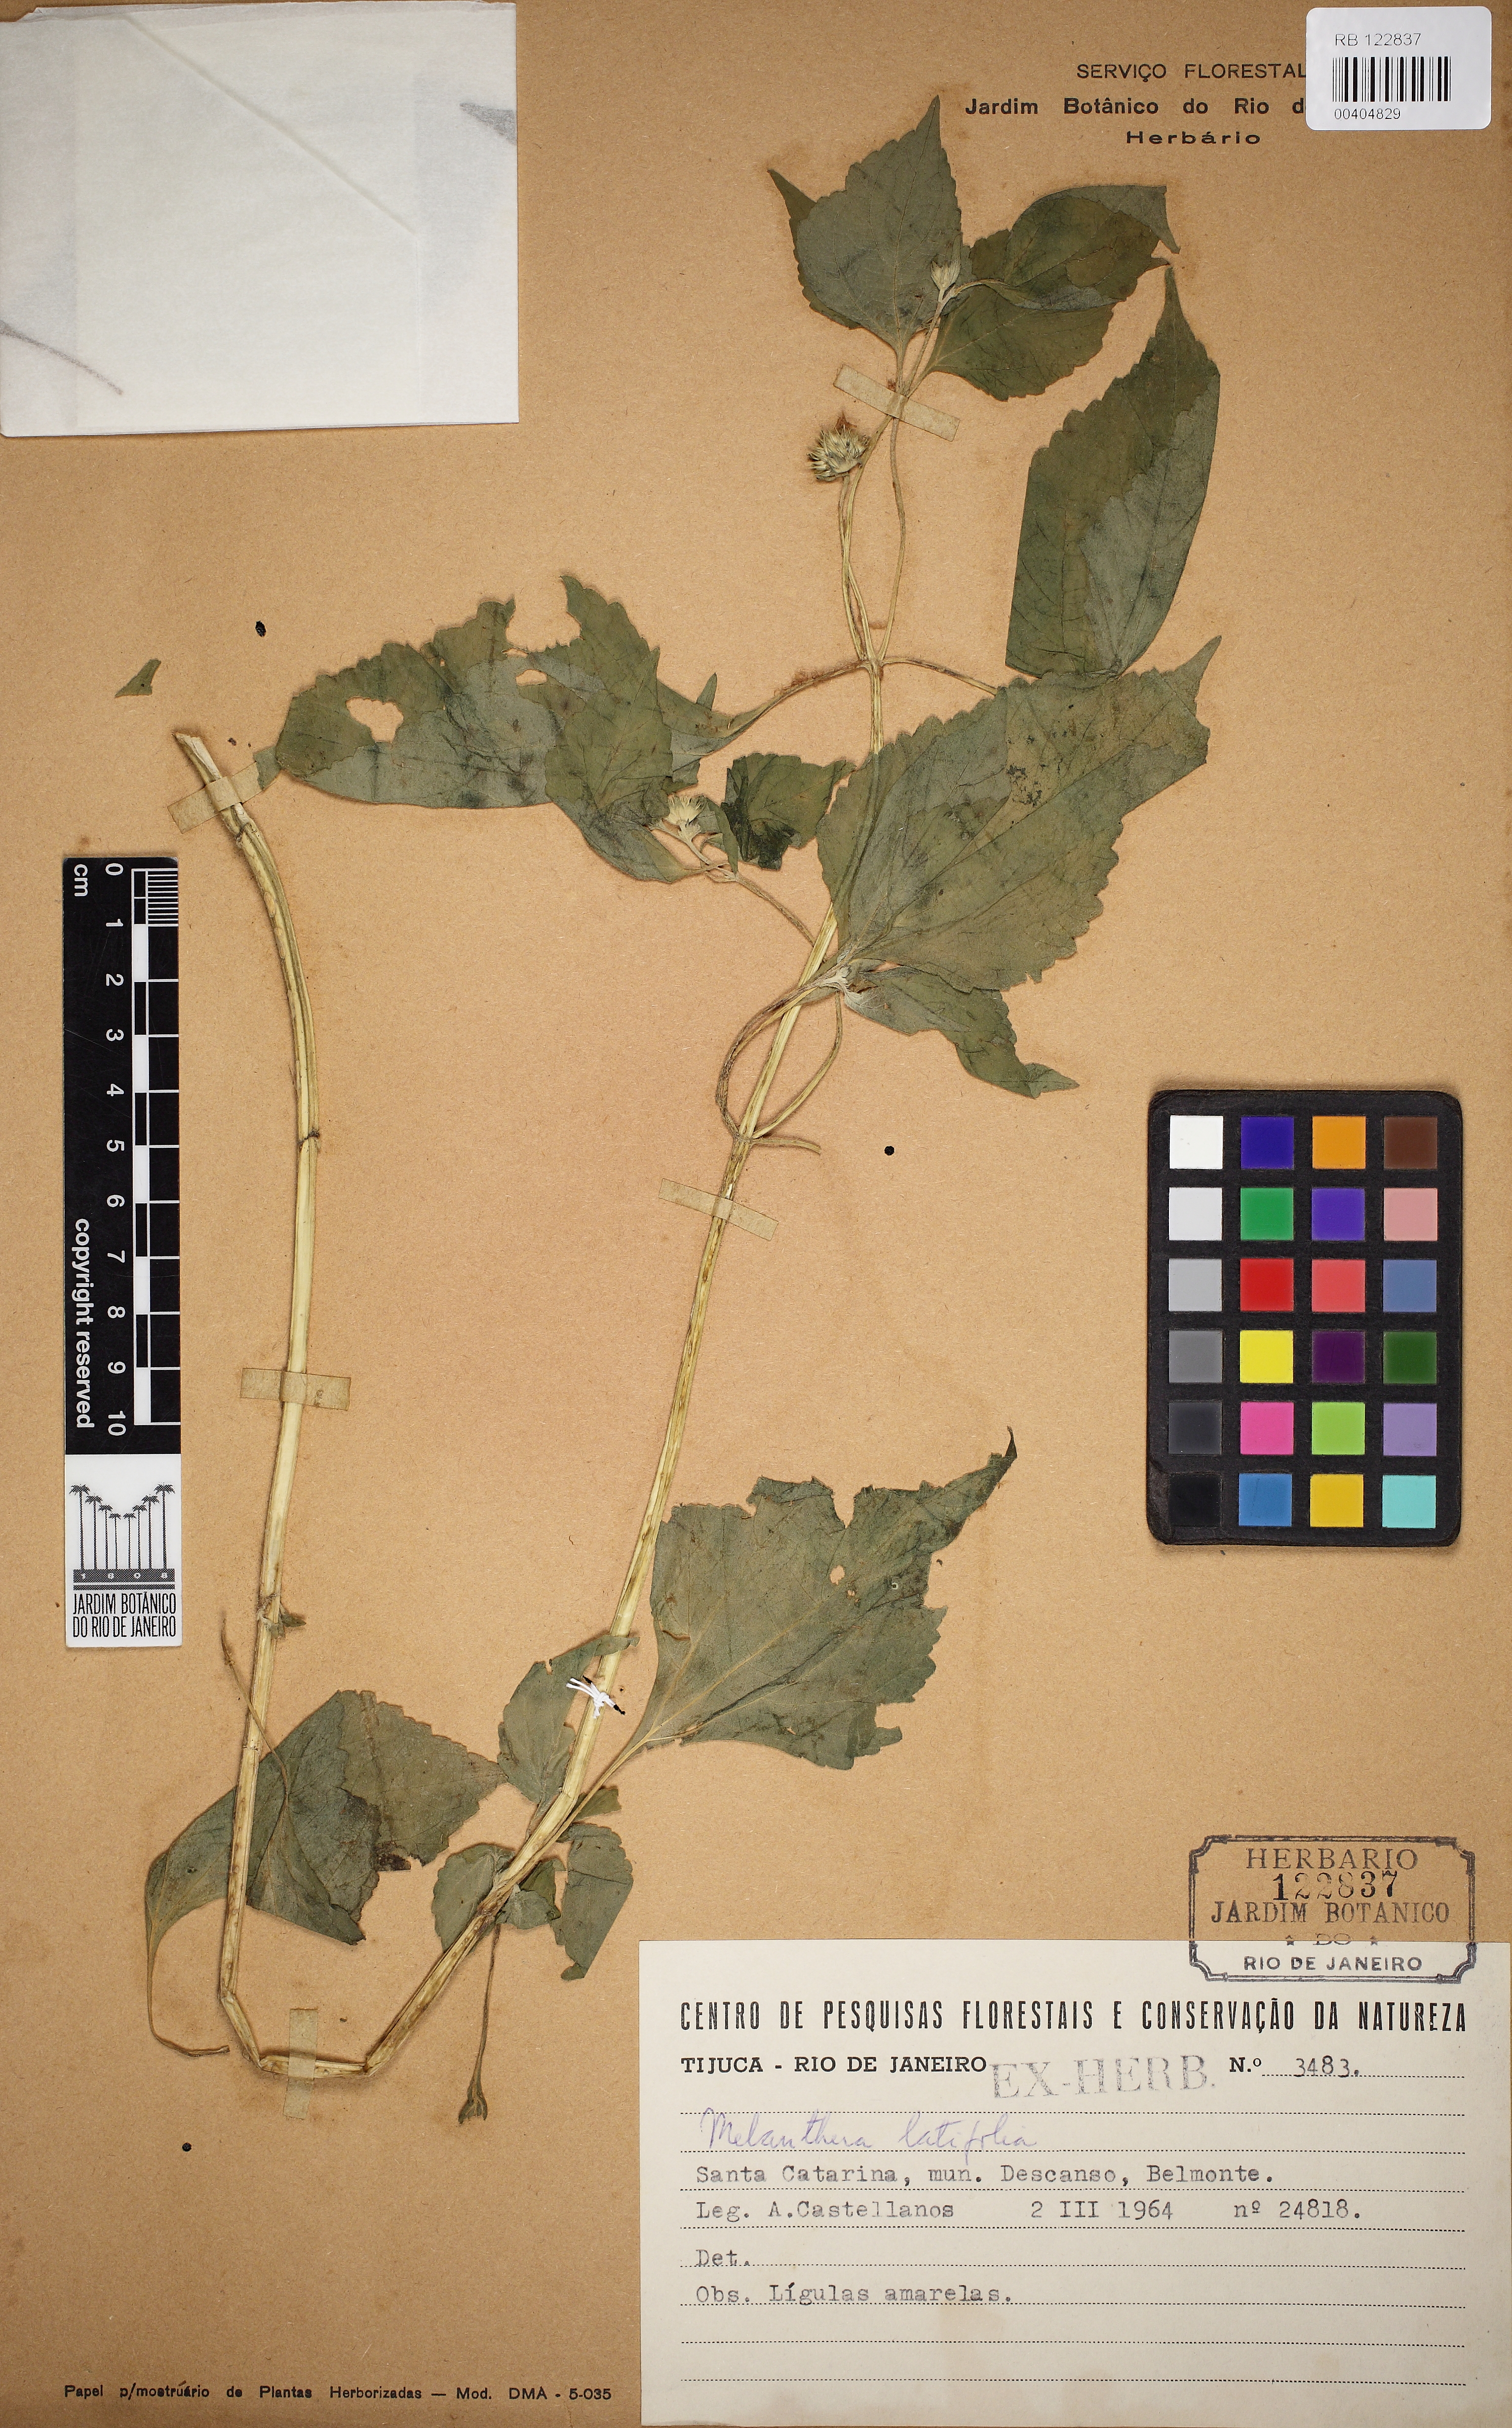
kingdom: Plantae
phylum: Tracheophyta
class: Magnoliopsida
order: Asterales
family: Asteraceae
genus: Echinocephalum
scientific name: Echinocephalum latifolium
